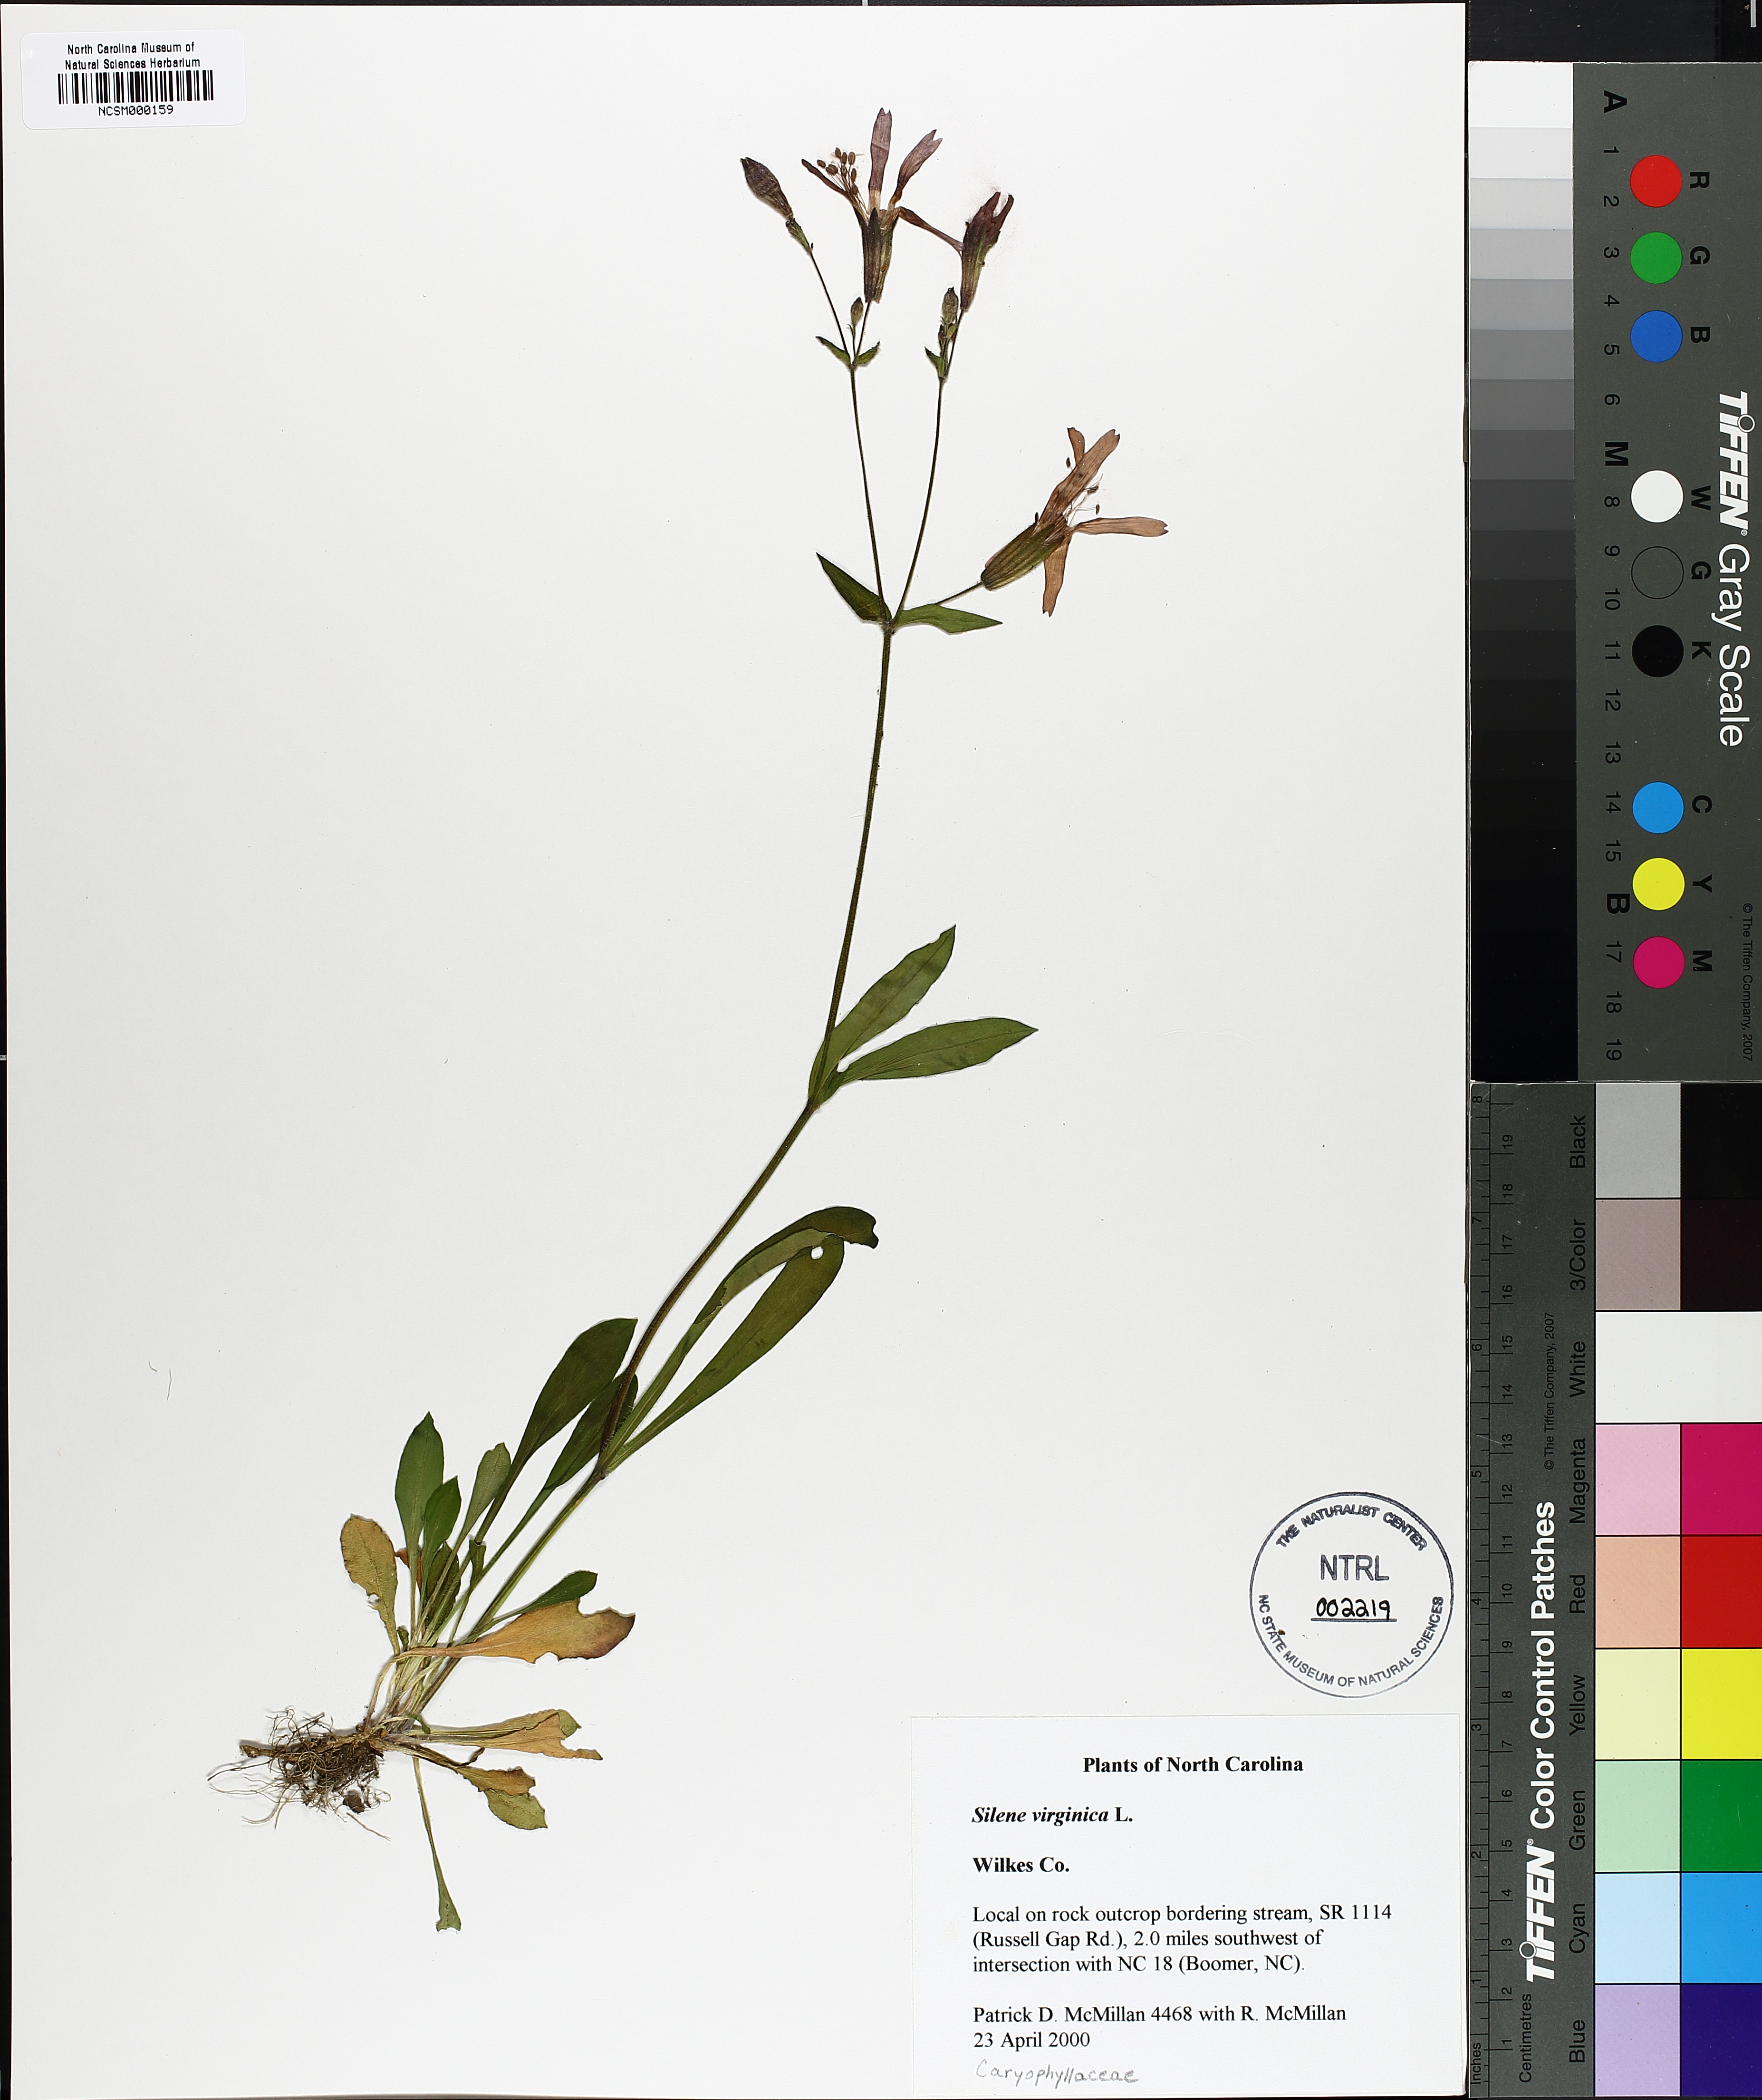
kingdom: Plantae
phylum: Tracheophyta
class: Magnoliopsida
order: Caryophyllales
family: Caryophyllaceae
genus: Silene
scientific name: Silene virginica
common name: Fire-pink
